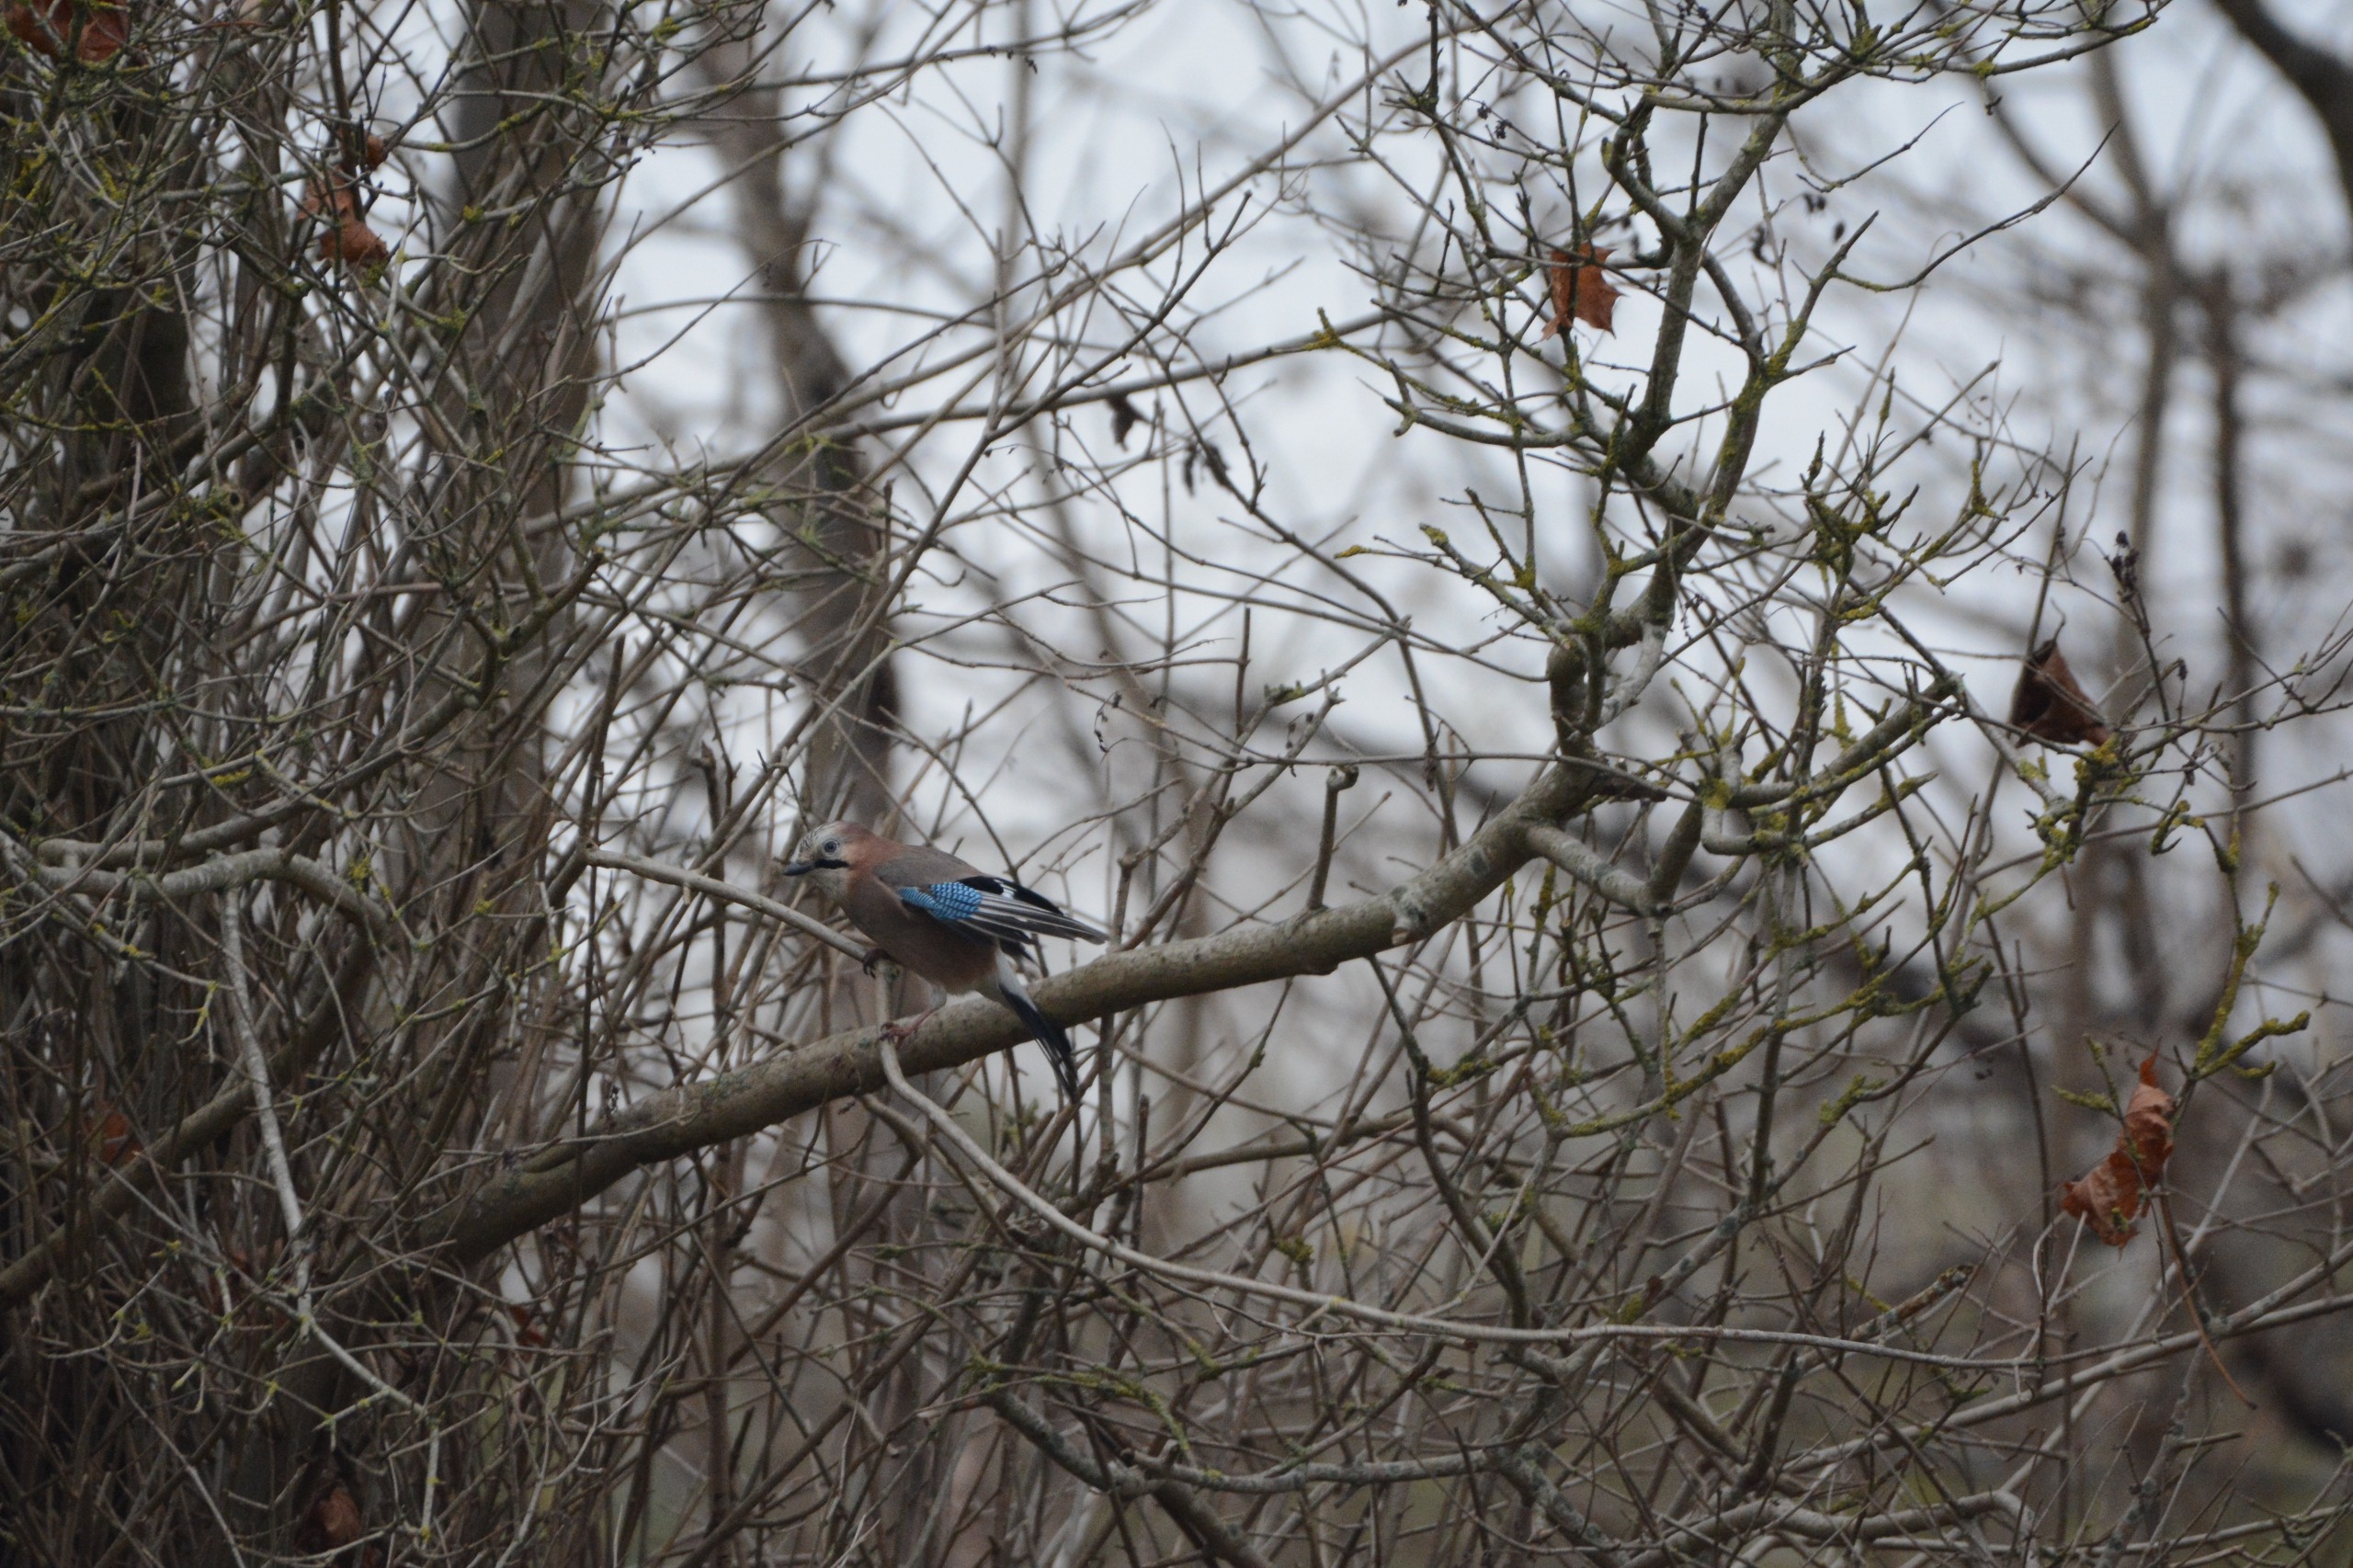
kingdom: Animalia
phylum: Chordata
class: Aves
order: Passeriformes
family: Corvidae
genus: Garrulus
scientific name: Garrulus glandarius
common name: Skovskade
